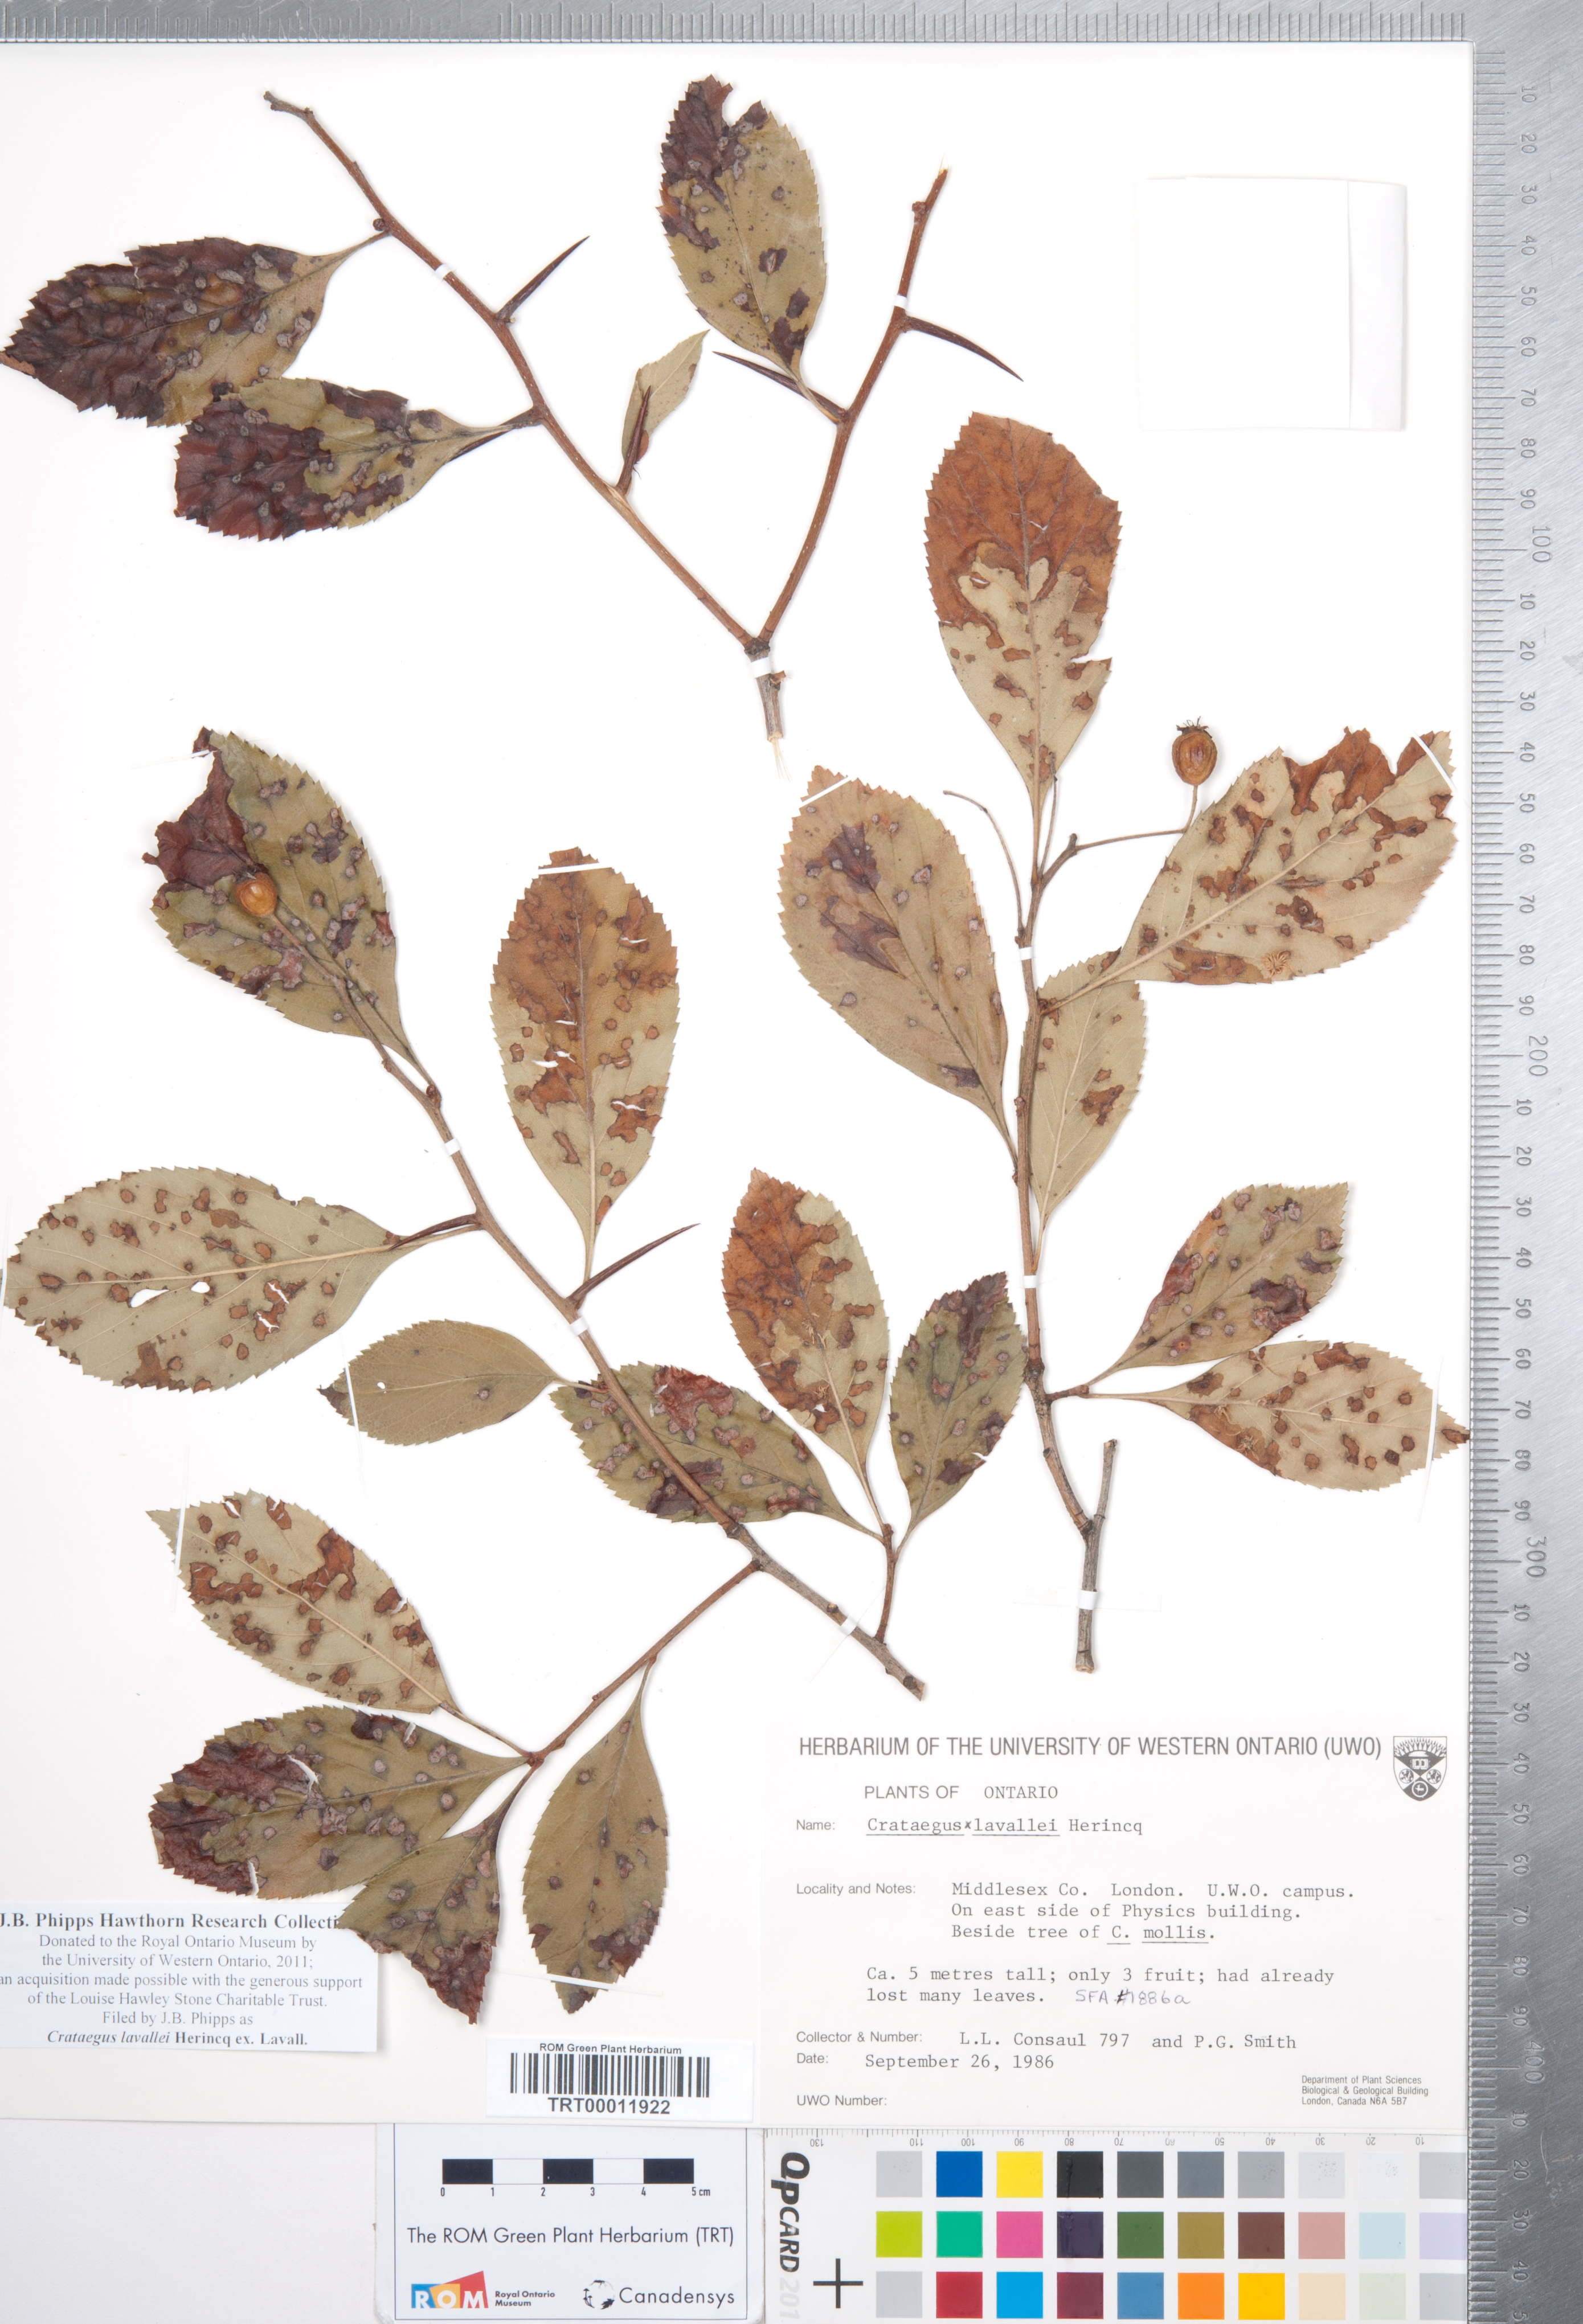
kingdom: Plantae
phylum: Tracheophyta
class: Magnoliopsida
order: Rosales
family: Rosaceae
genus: Crataegus
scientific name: Crataegus lavallei
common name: Lavell hawthorn
